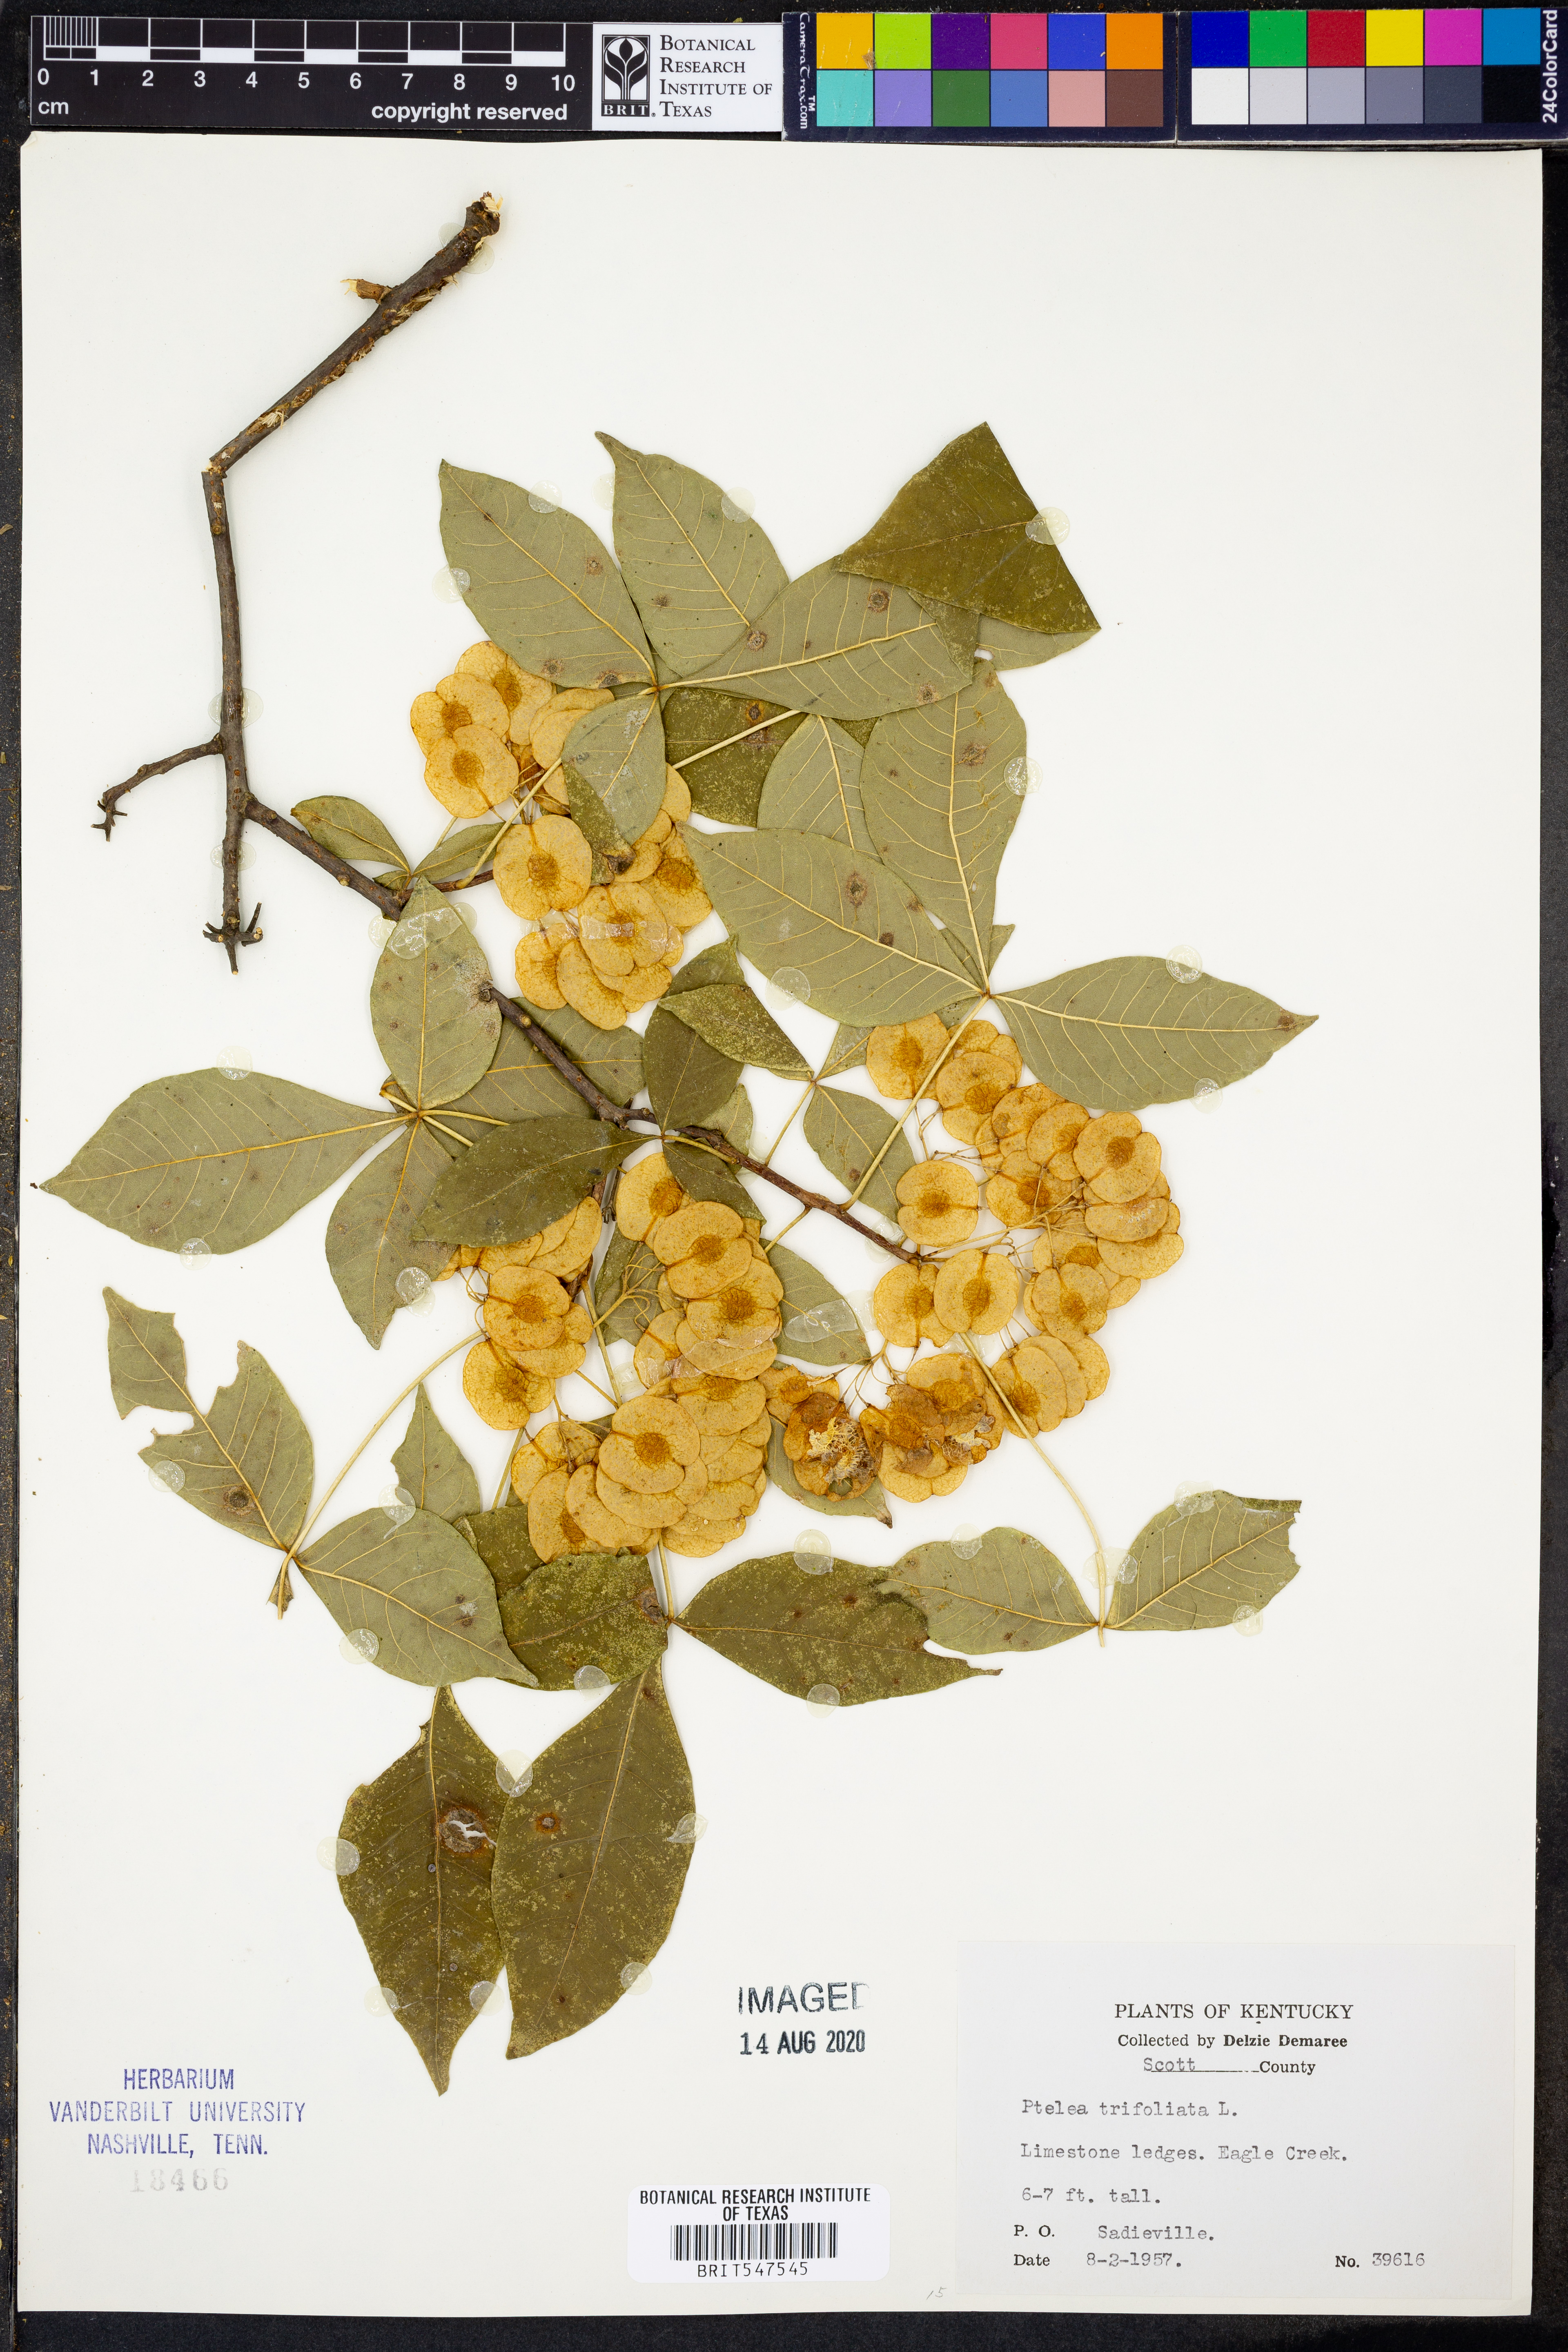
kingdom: Plantae
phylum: Tracheophyta
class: Magnoliopsida
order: Sapindales
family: Rutaceae
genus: Ptelea
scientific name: Ptelea trifoliata
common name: Common hop-tree
